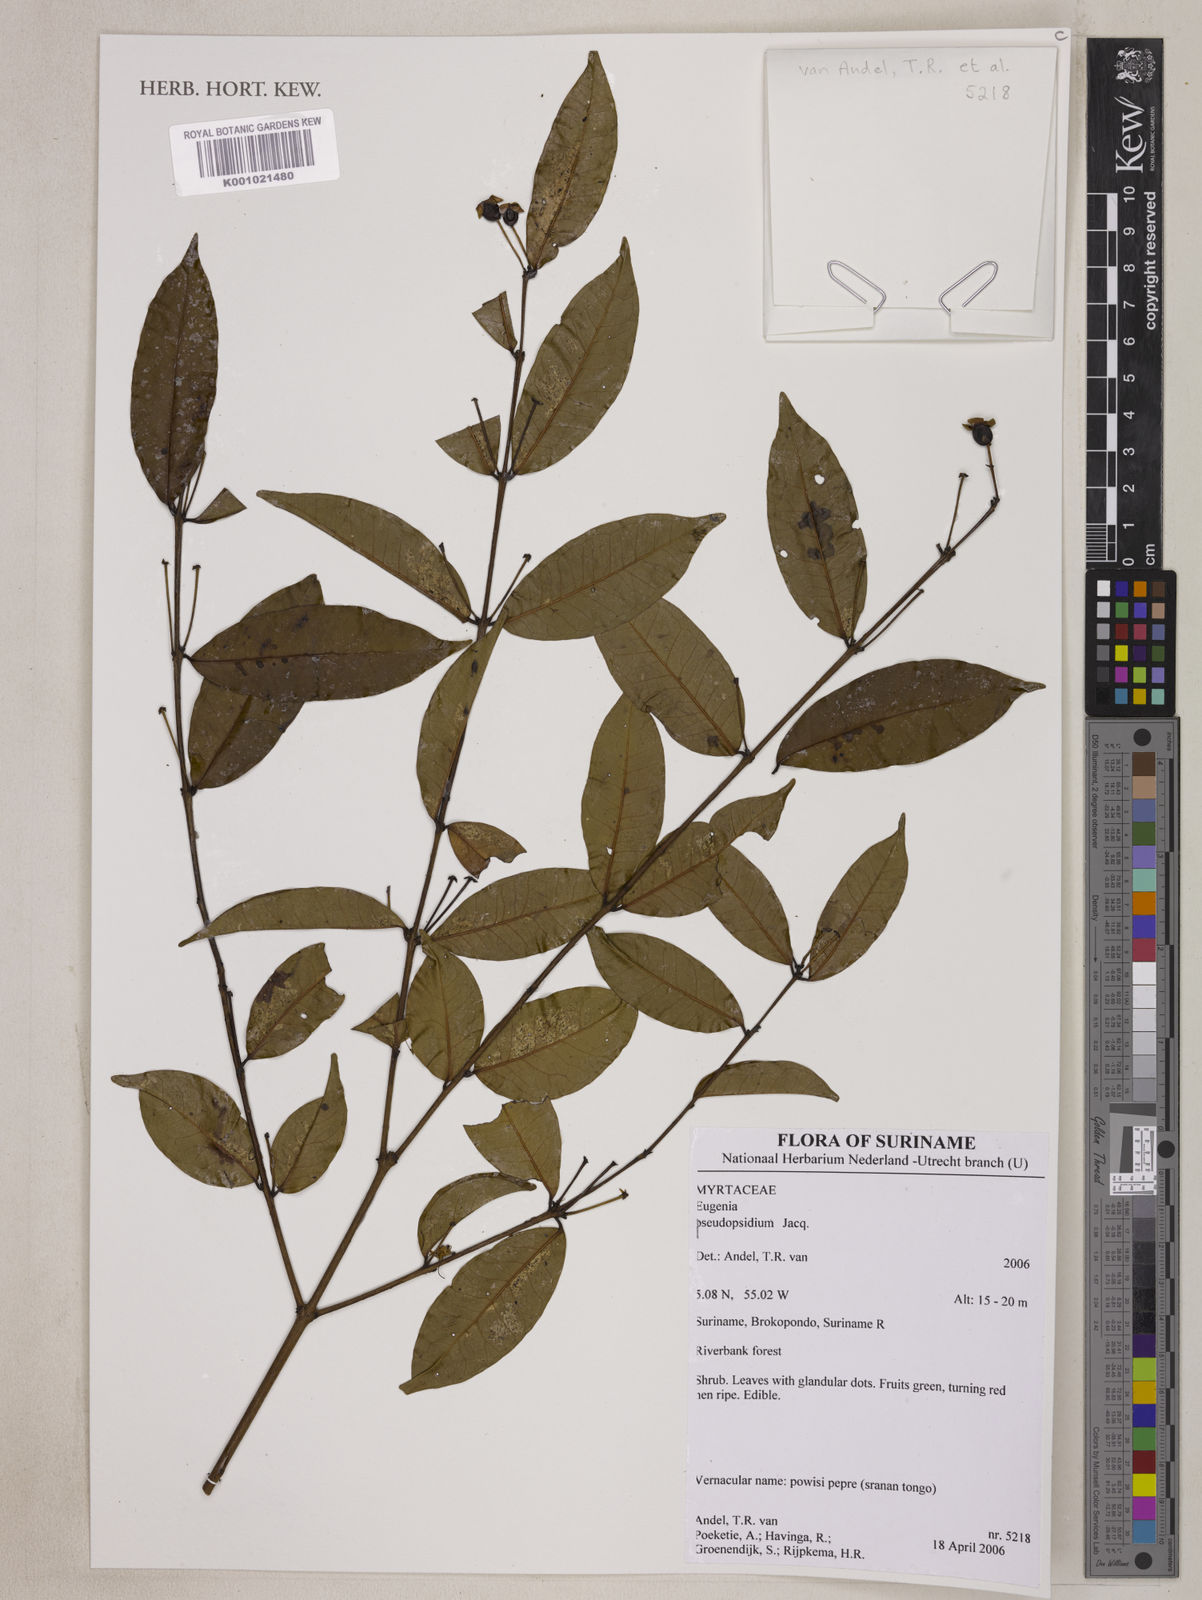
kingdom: Plantae
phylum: Tracheophyta
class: Magnoliopsida
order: Myrtales
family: Myrtaceae
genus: Eugenia
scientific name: Eugenia pseudopsidium
